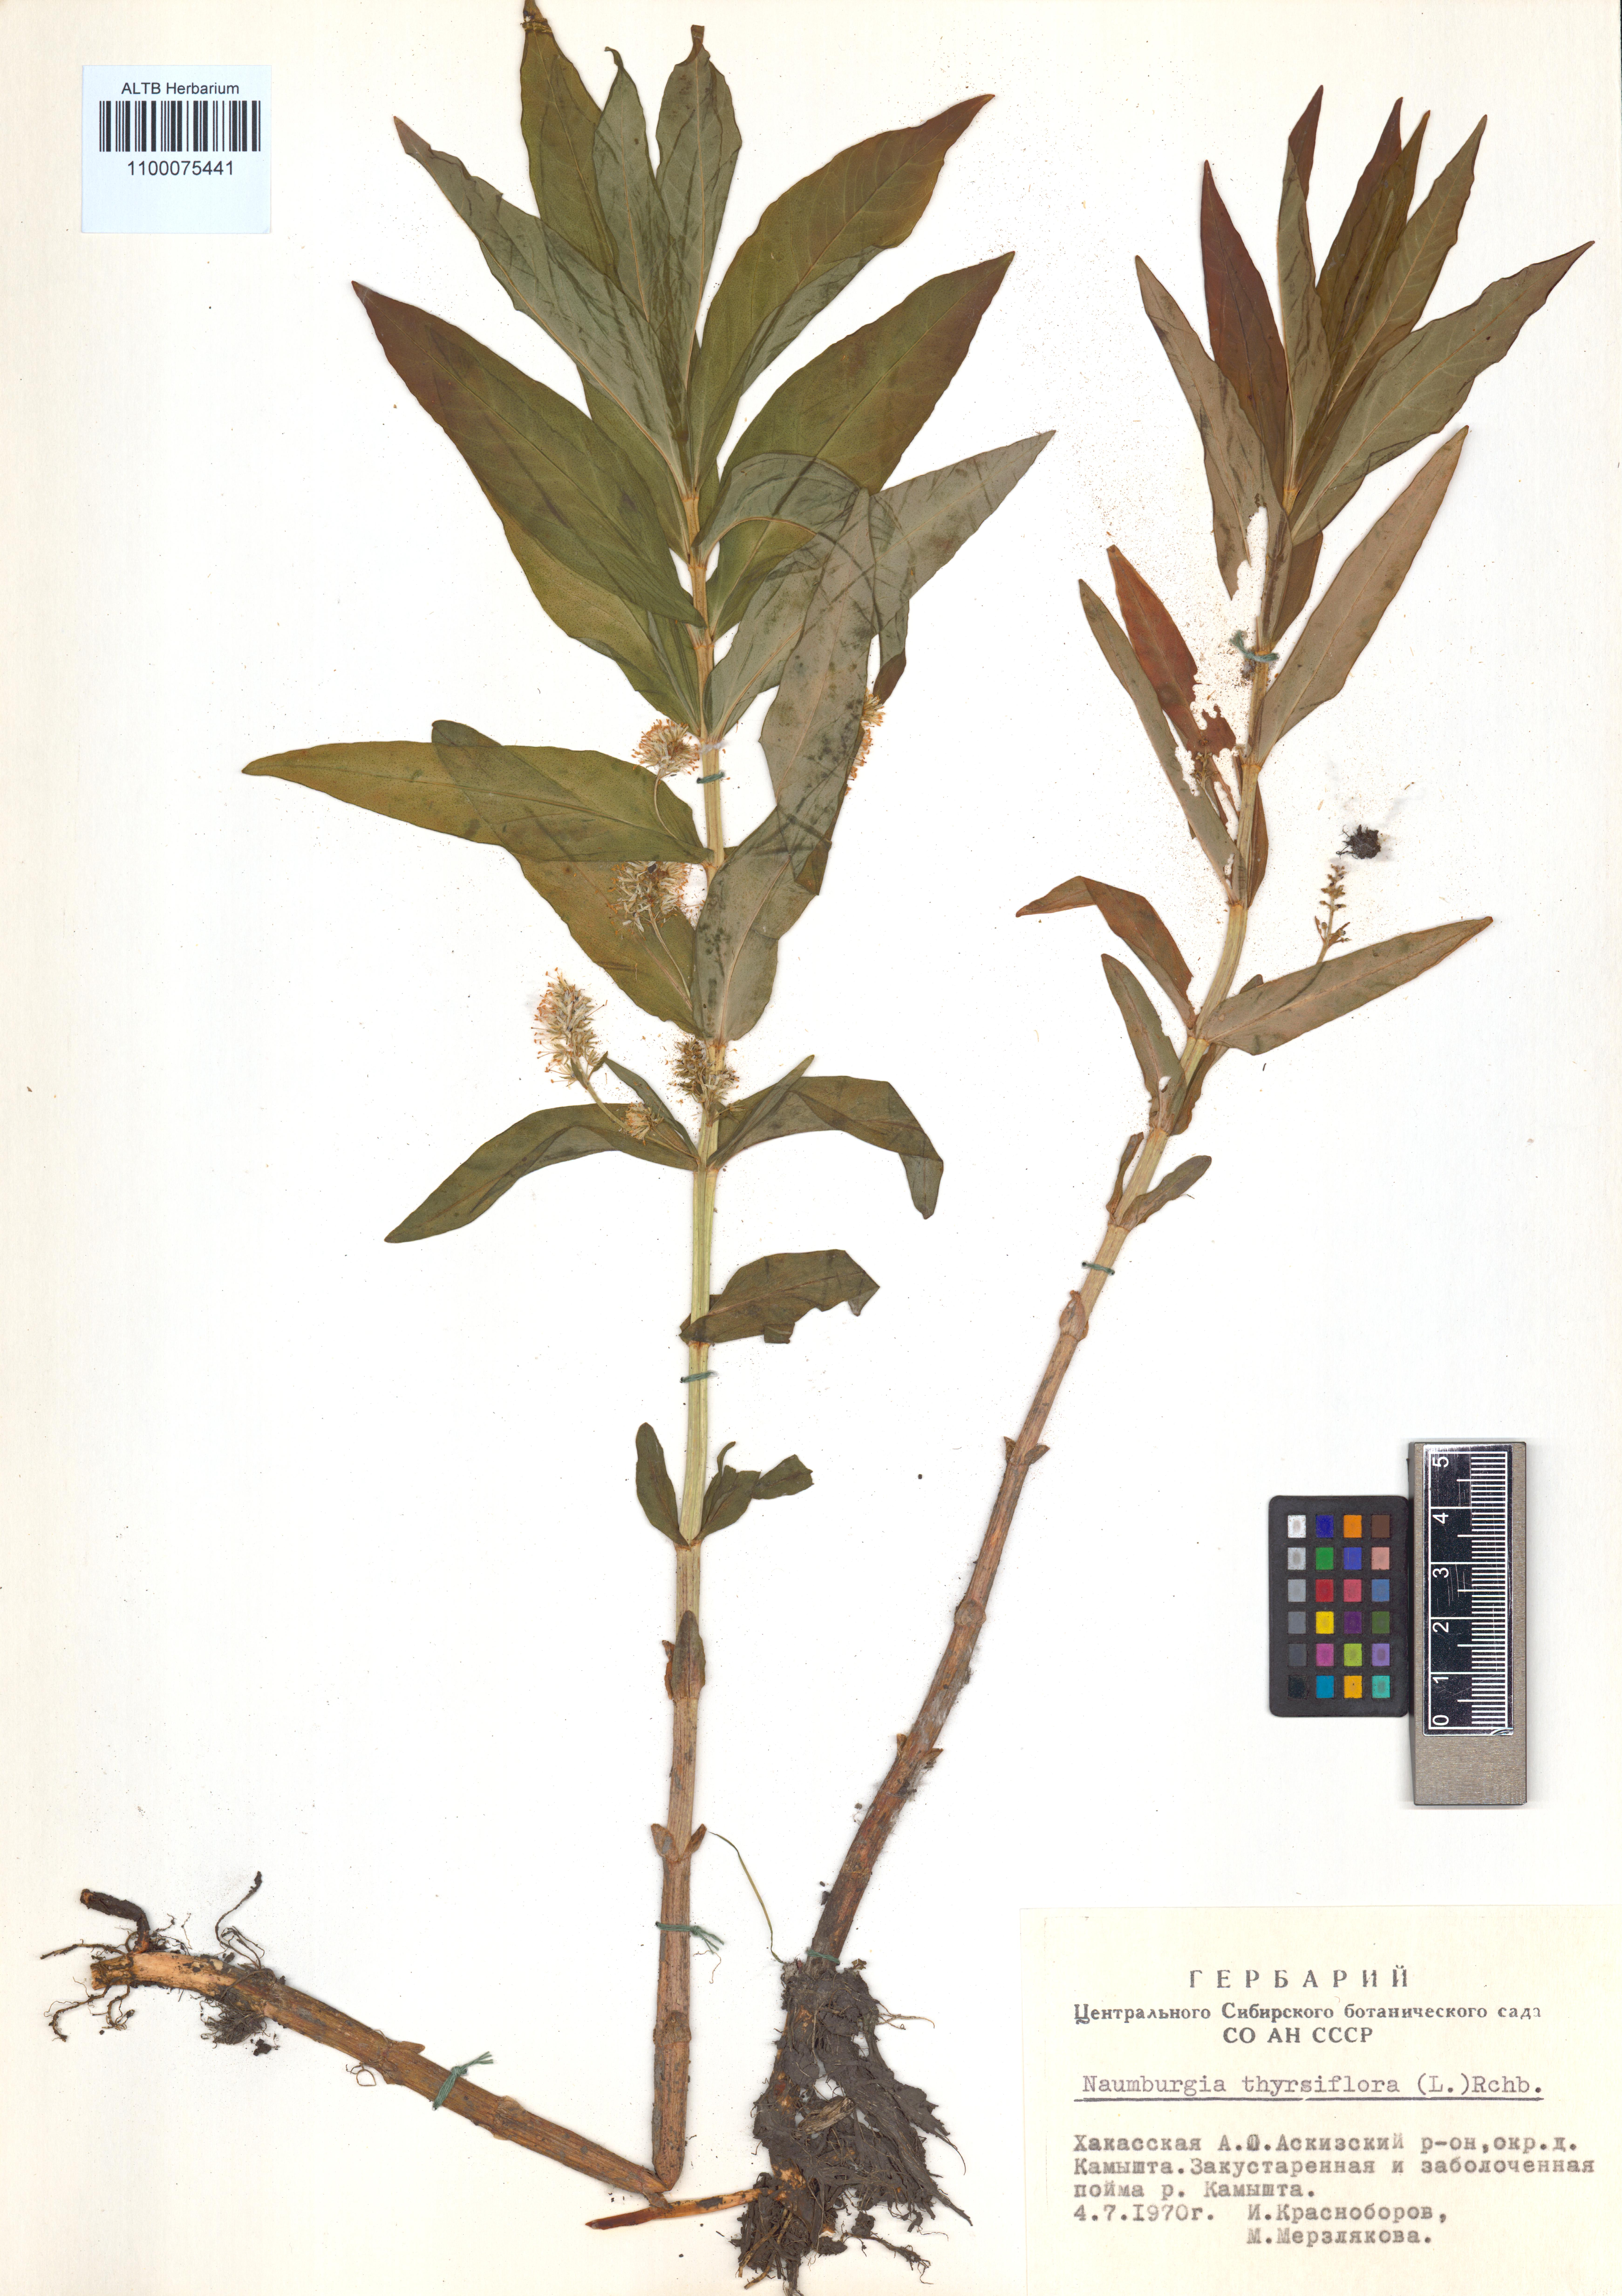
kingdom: Plantae
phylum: Tracheophyta
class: Magnoliopsida
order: Ericales
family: Primulaceae
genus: Lysimachia
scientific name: Lysimachia thyrsiflora
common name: Tufted loosestrife
